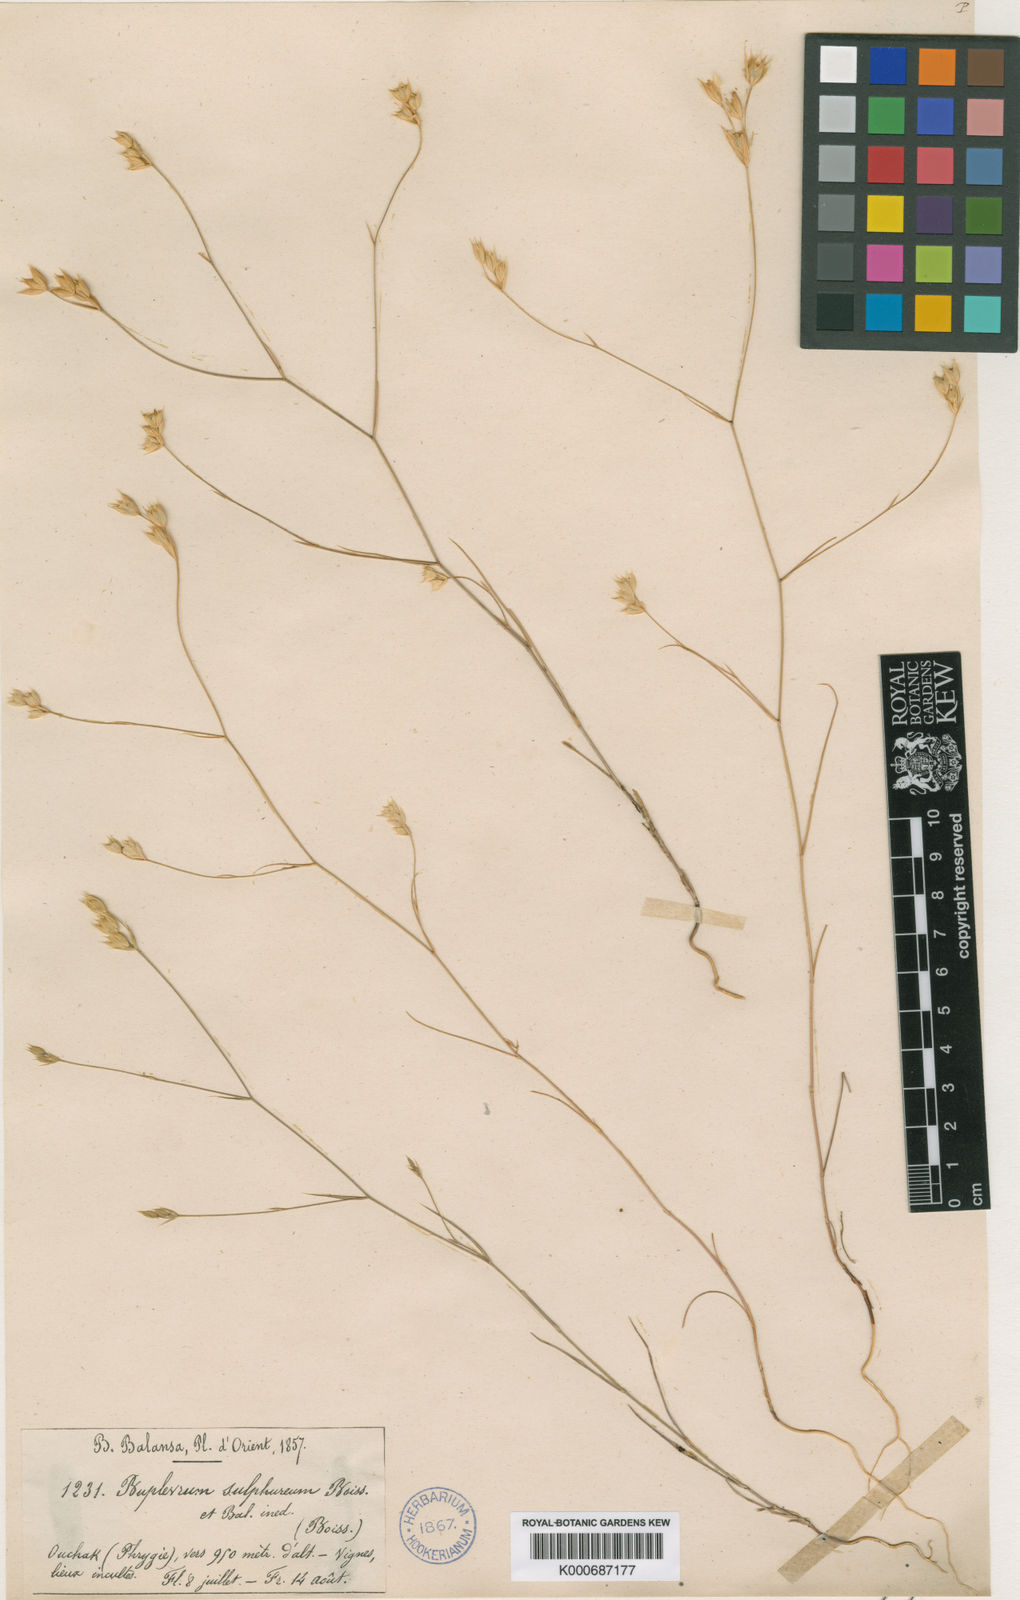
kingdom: Plantae
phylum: Tracheophyta
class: Magnoliopsida
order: Apiales
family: Apiaceae
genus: Bupleurum
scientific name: Bupleurum sulphureum
